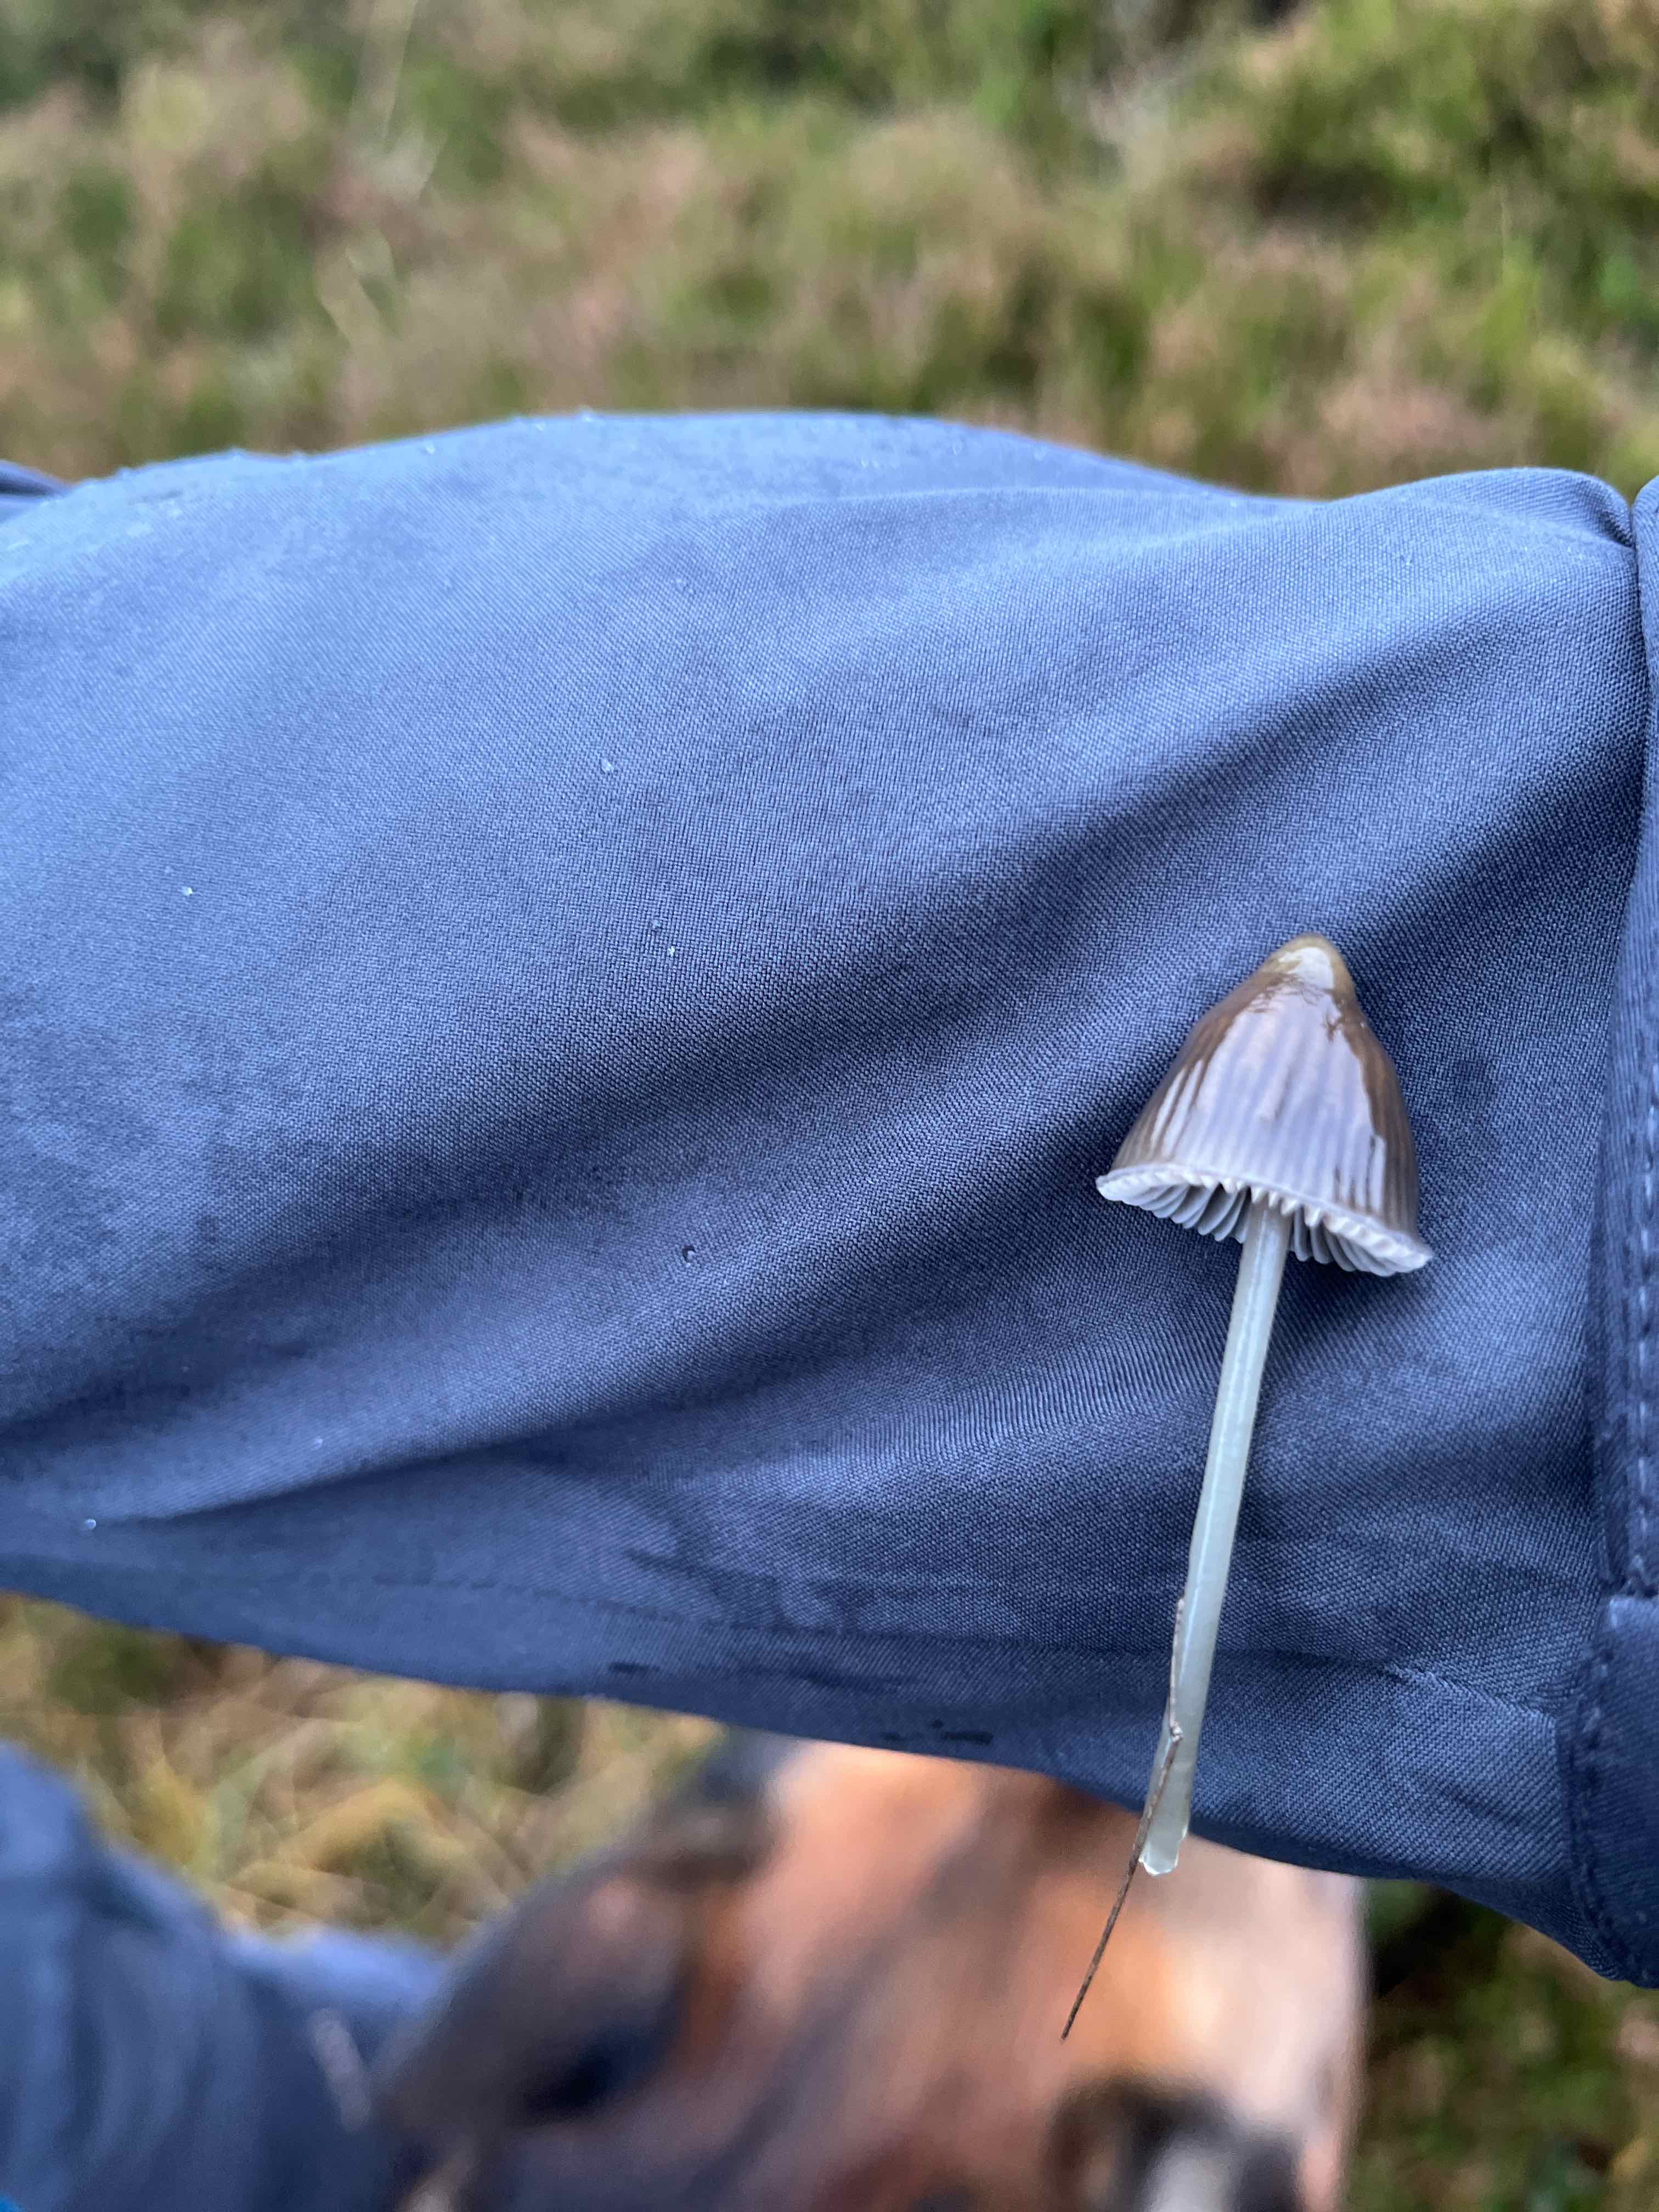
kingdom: Fungi
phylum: Basidiomycota
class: Agaricomycetes
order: Agaricales
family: Mycenaceae
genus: Mycena
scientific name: Mycena
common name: huesvamp
